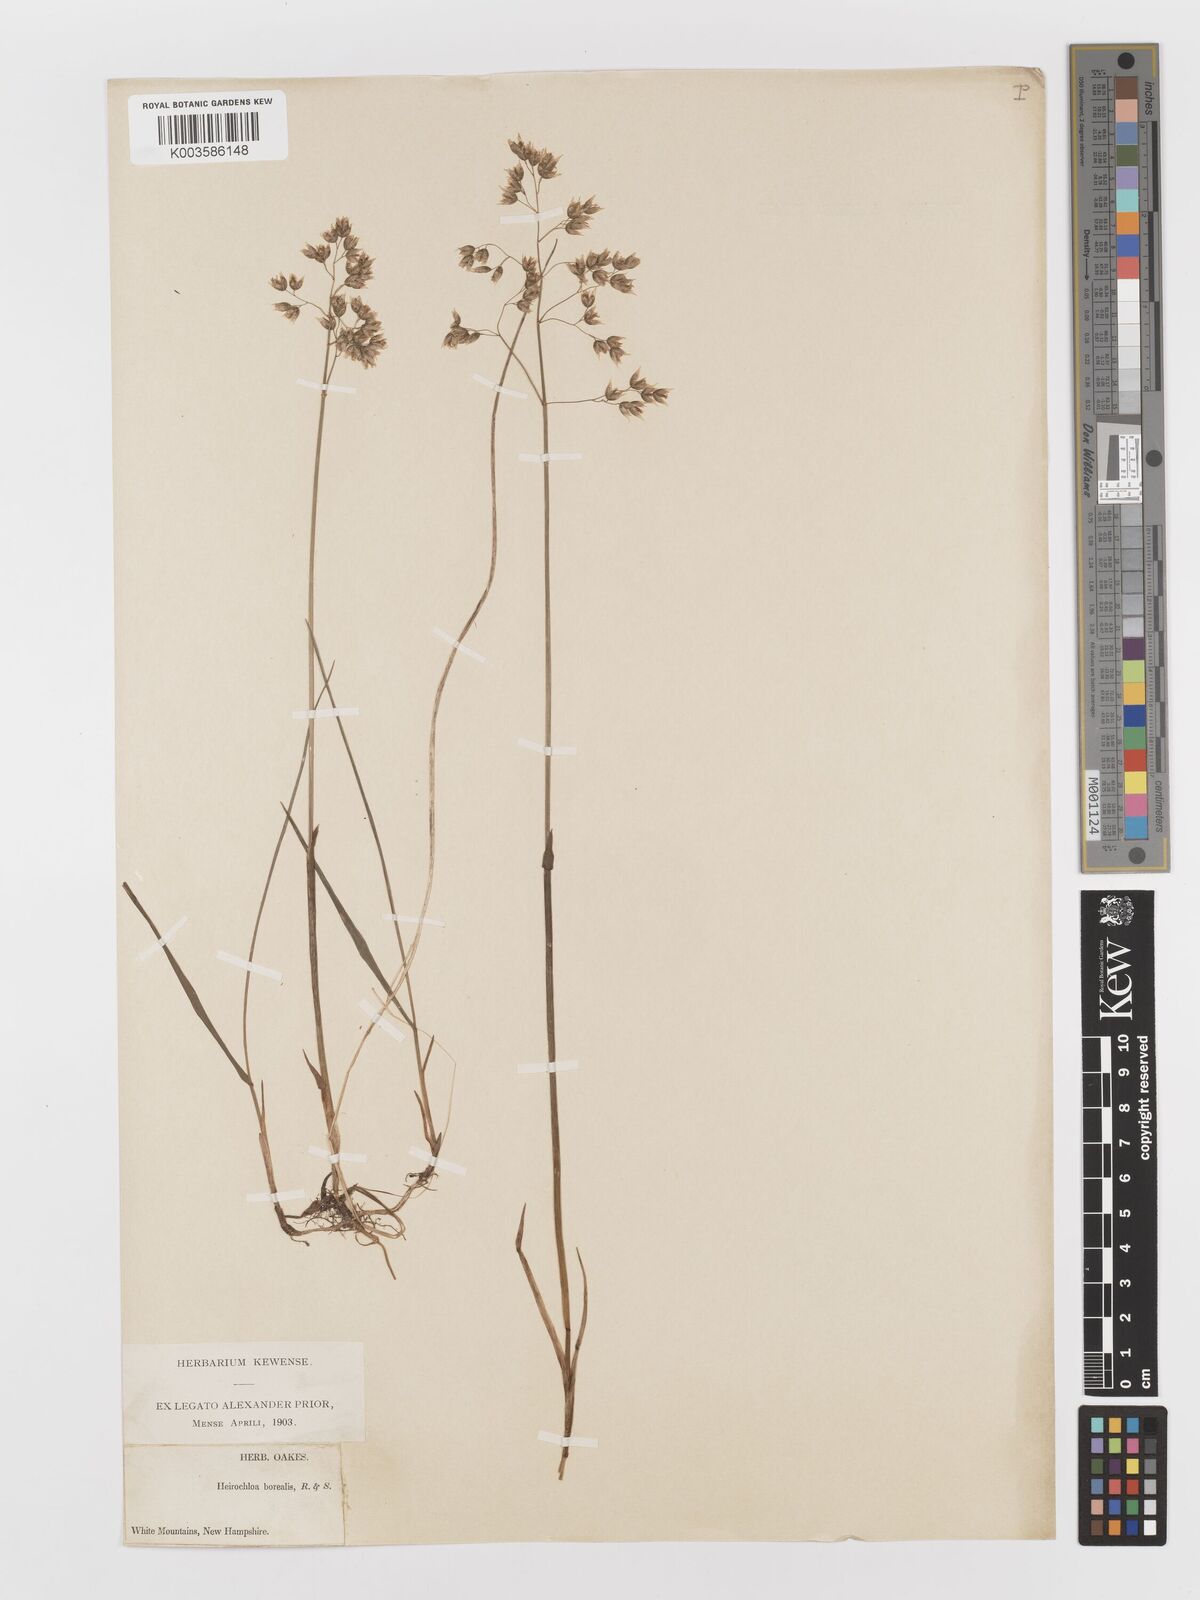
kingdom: Plantae
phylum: Tracheophyta
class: Liliopsida
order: Poales
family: Poaceae
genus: Anthoxanthum
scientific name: Anthoxanthum nitens
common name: Holy grass
